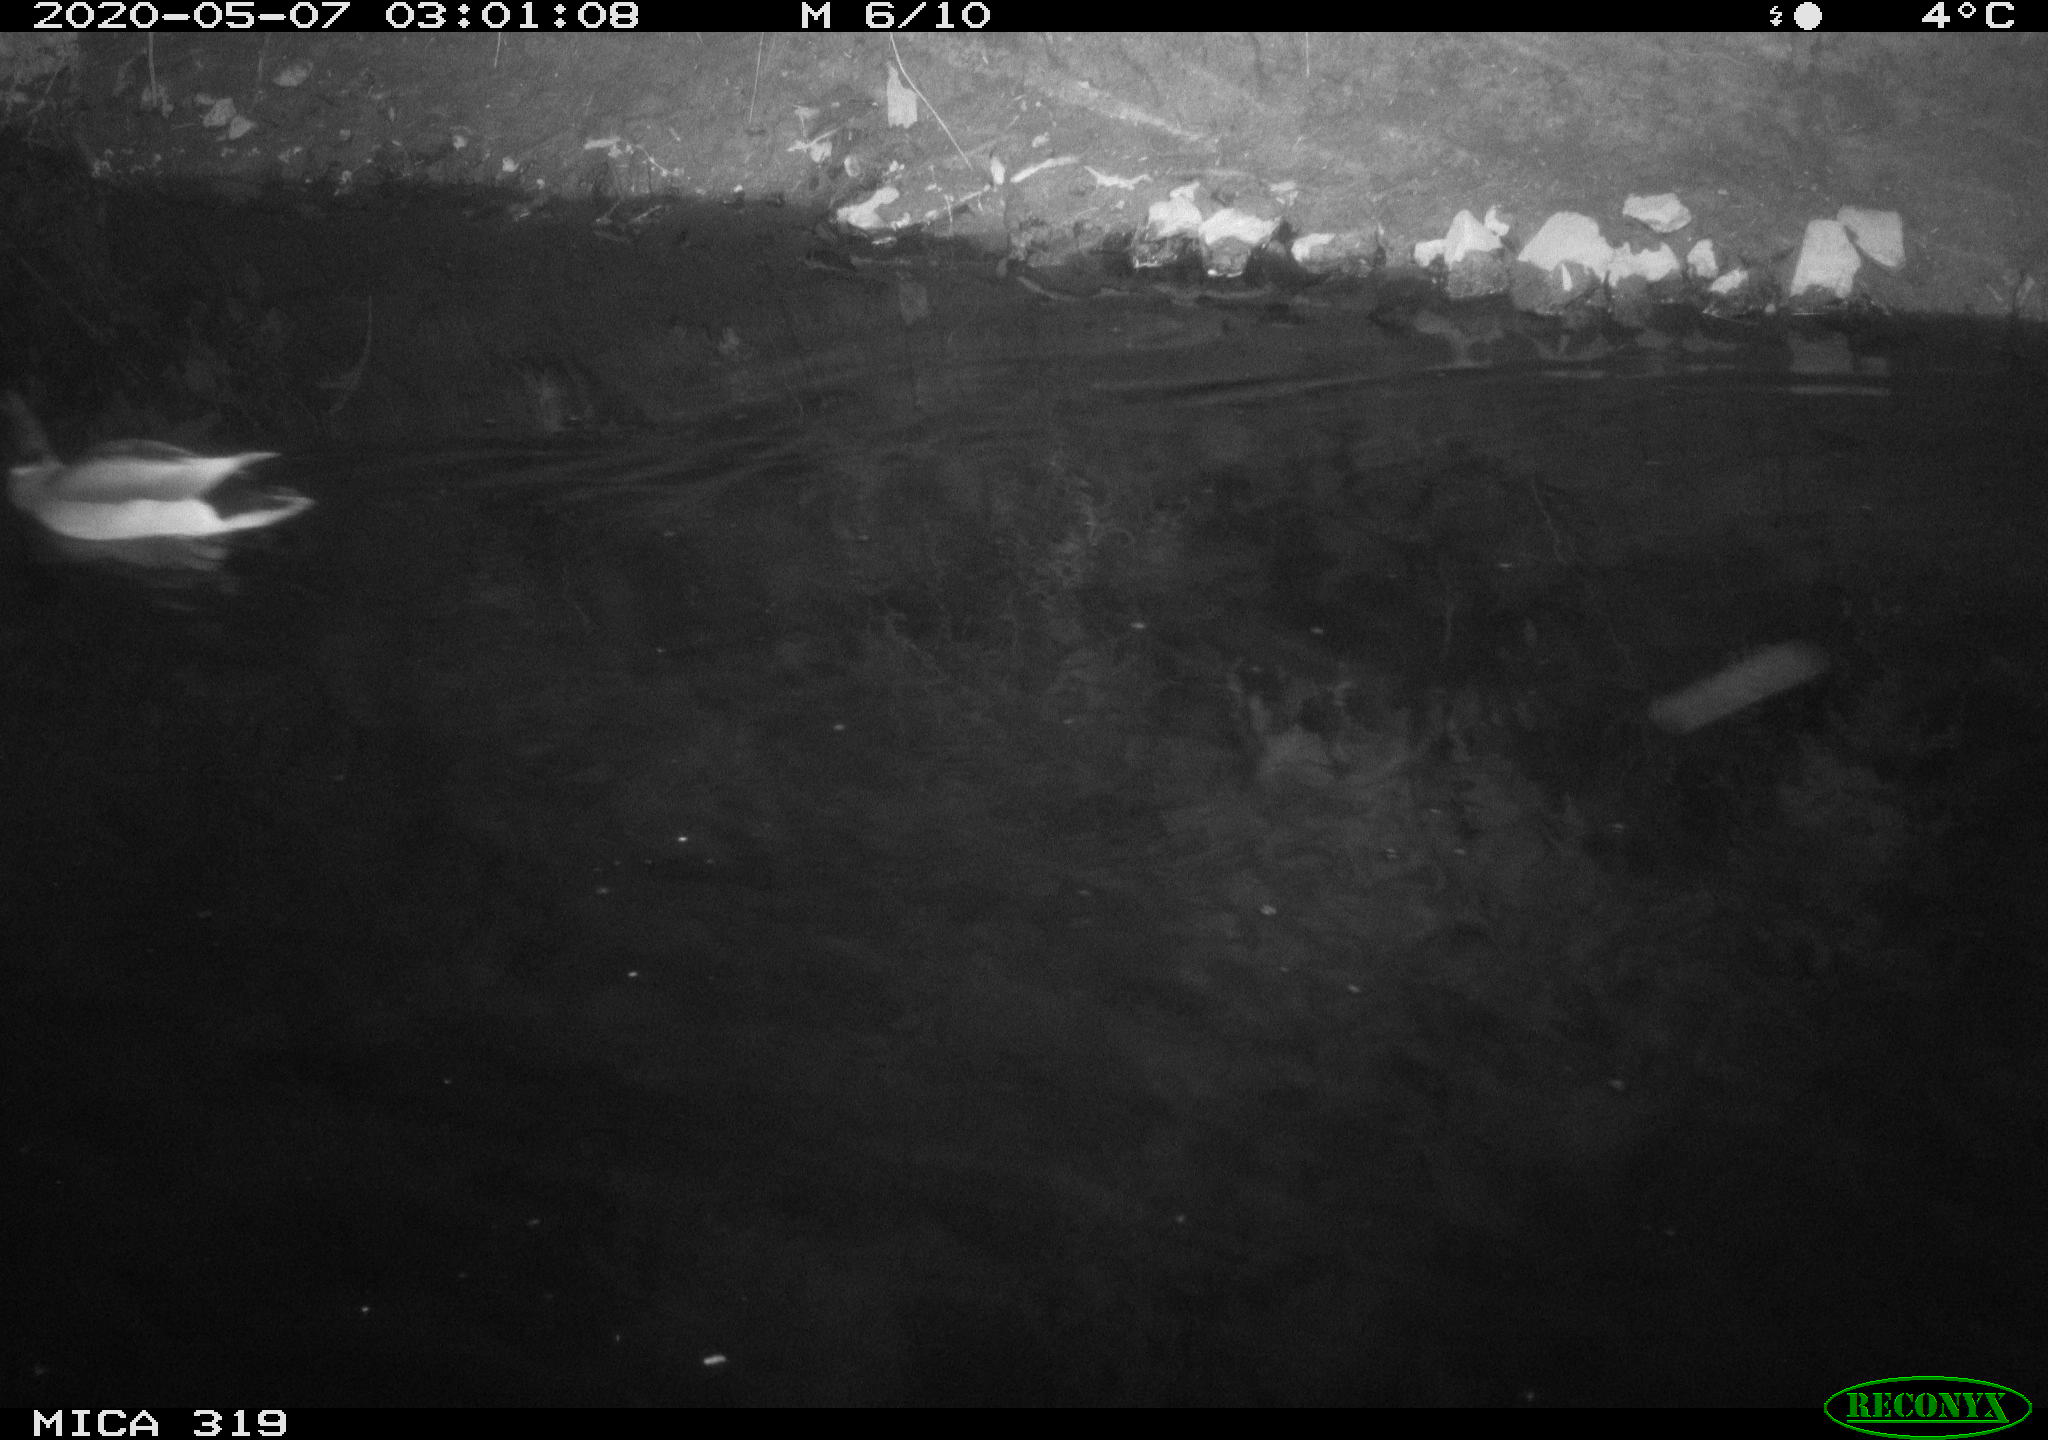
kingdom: Animalia
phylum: Chordata
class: Aves
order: Anseriformes
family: Anatidae
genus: Anas
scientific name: Anas platyrhynchos
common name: Mallard
